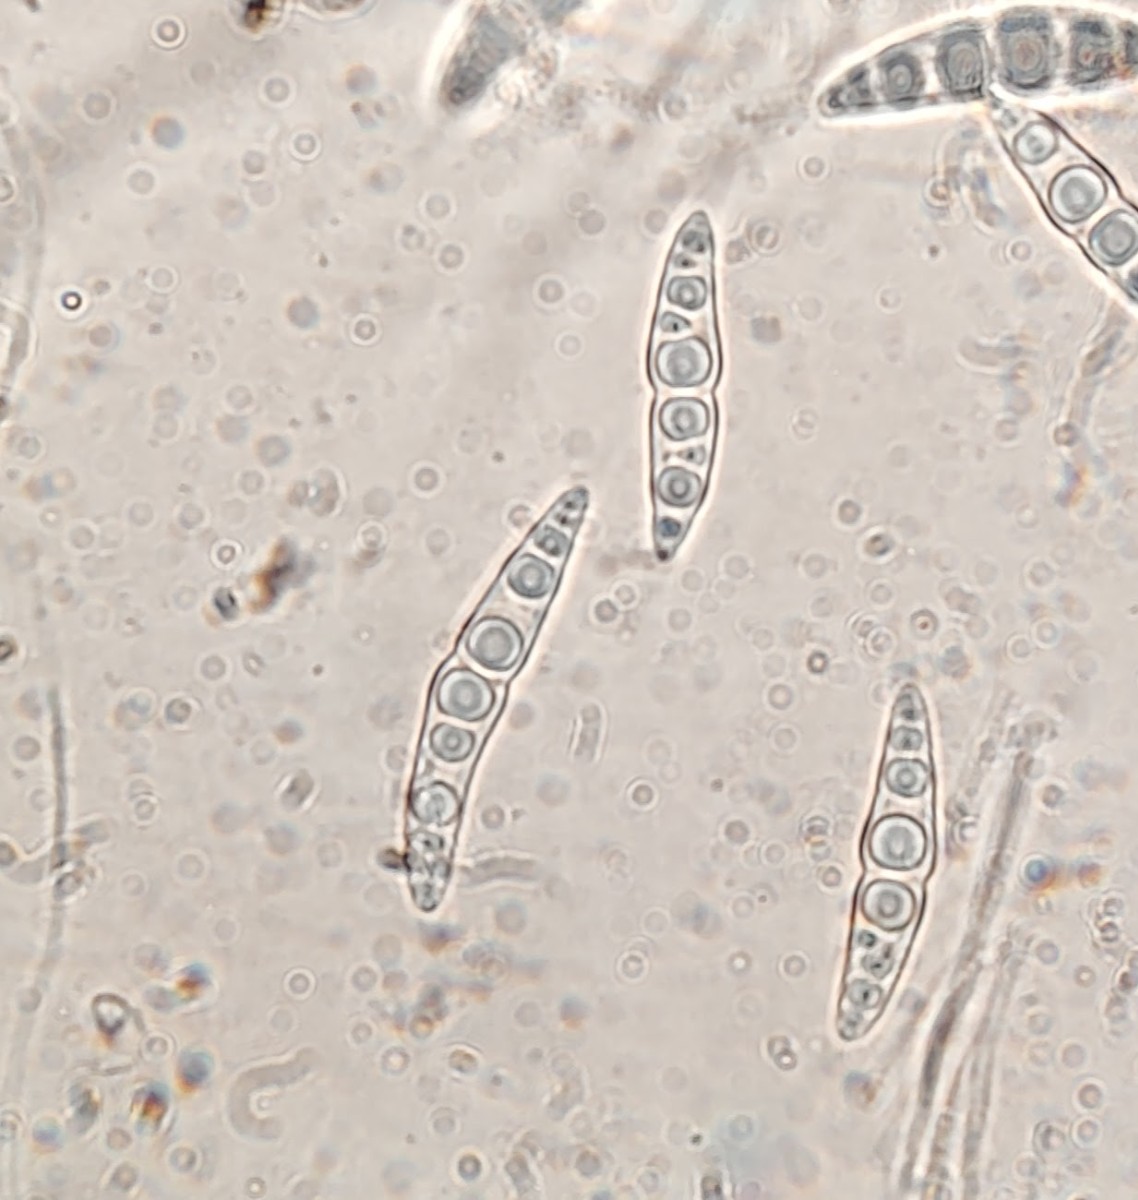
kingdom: Fungi
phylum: Ascomycota
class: Dothideomycetes
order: Pleosporales
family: Lophiostomataceae
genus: Lophiostoma
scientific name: Lophiostoma semiliberum
